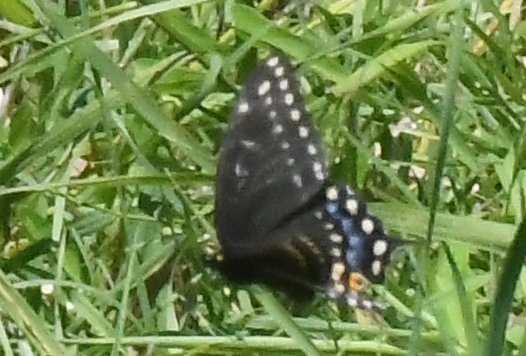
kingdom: Animalia
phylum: Arthropoda
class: Insecta
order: Lepidoptera
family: Papilionidae
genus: Papilio
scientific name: Papilio polyxenes
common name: Black Swallowtail
